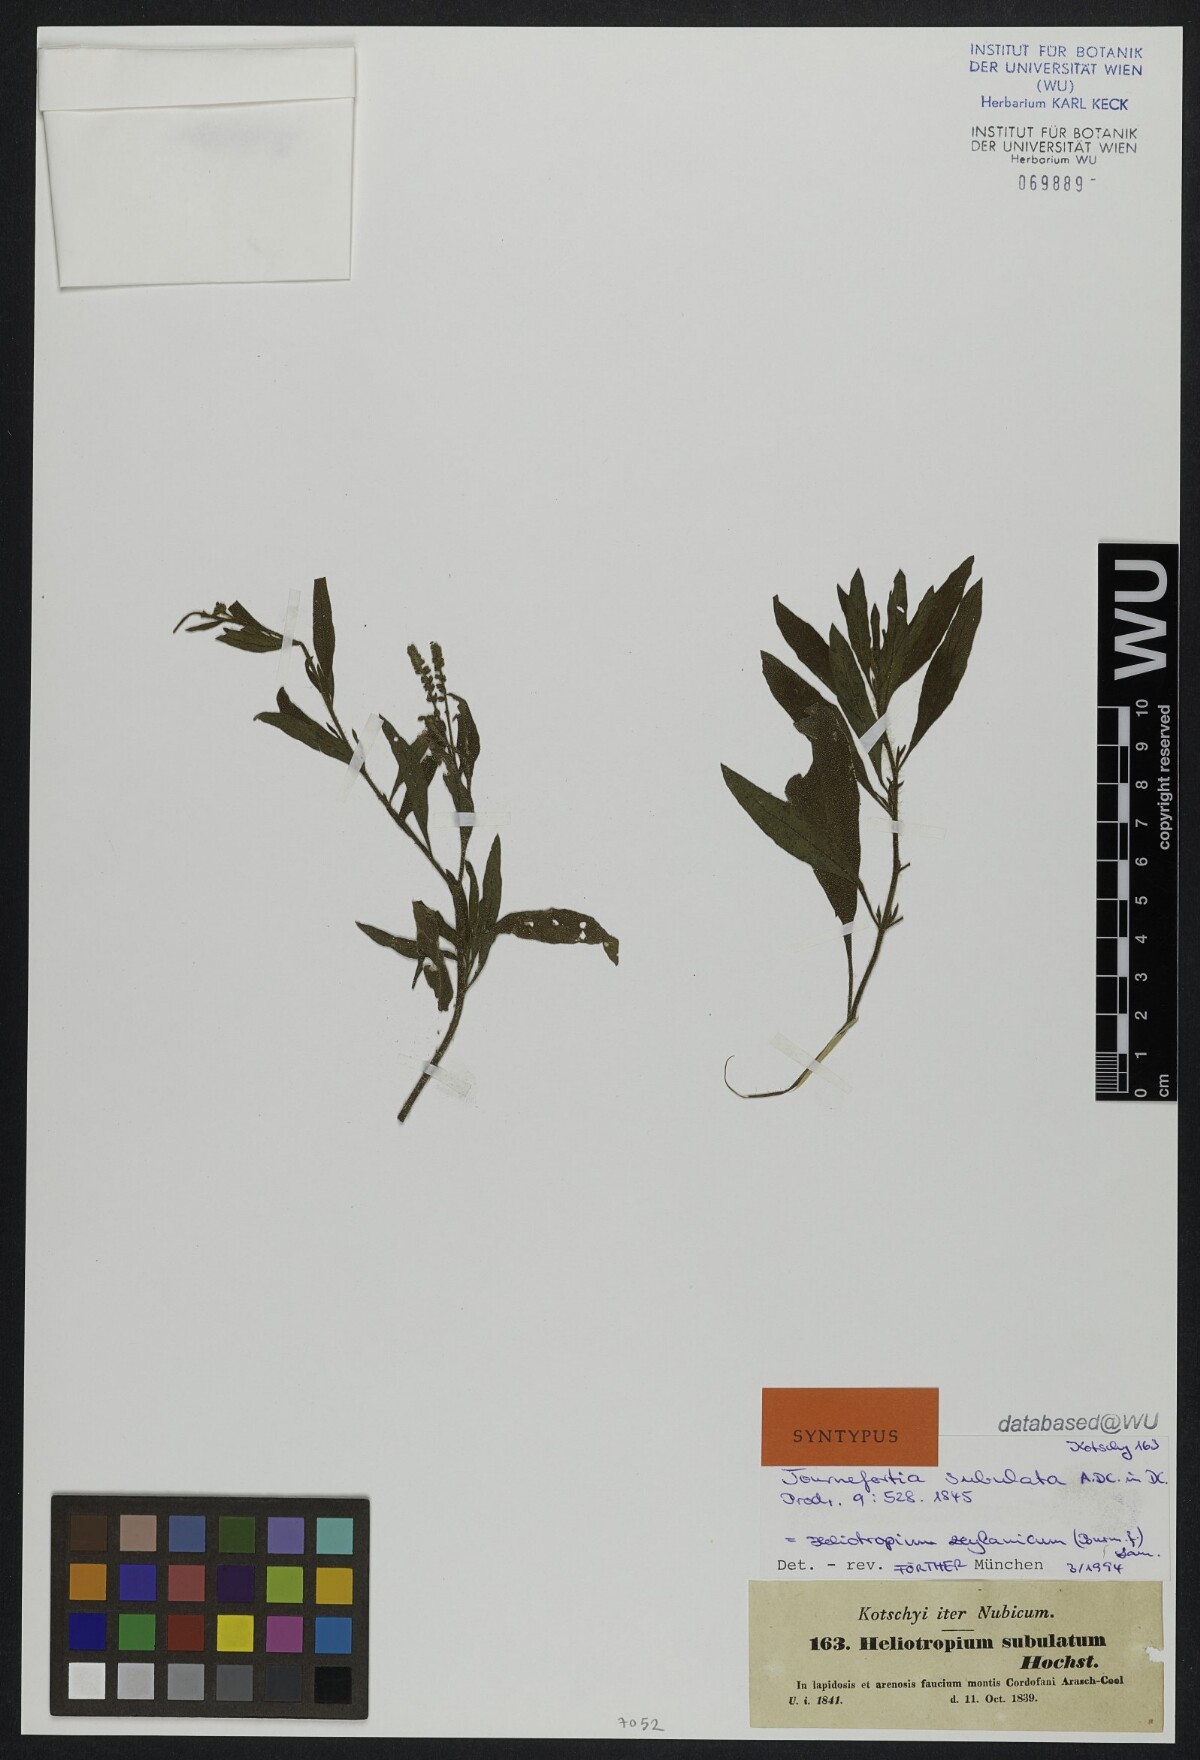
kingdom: Plantae
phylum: Tracheophyta
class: Magnoliopsida
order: Boraginales
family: Heliotropiaceae
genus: Heliotropium
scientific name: Heliotropium zeylanicum
